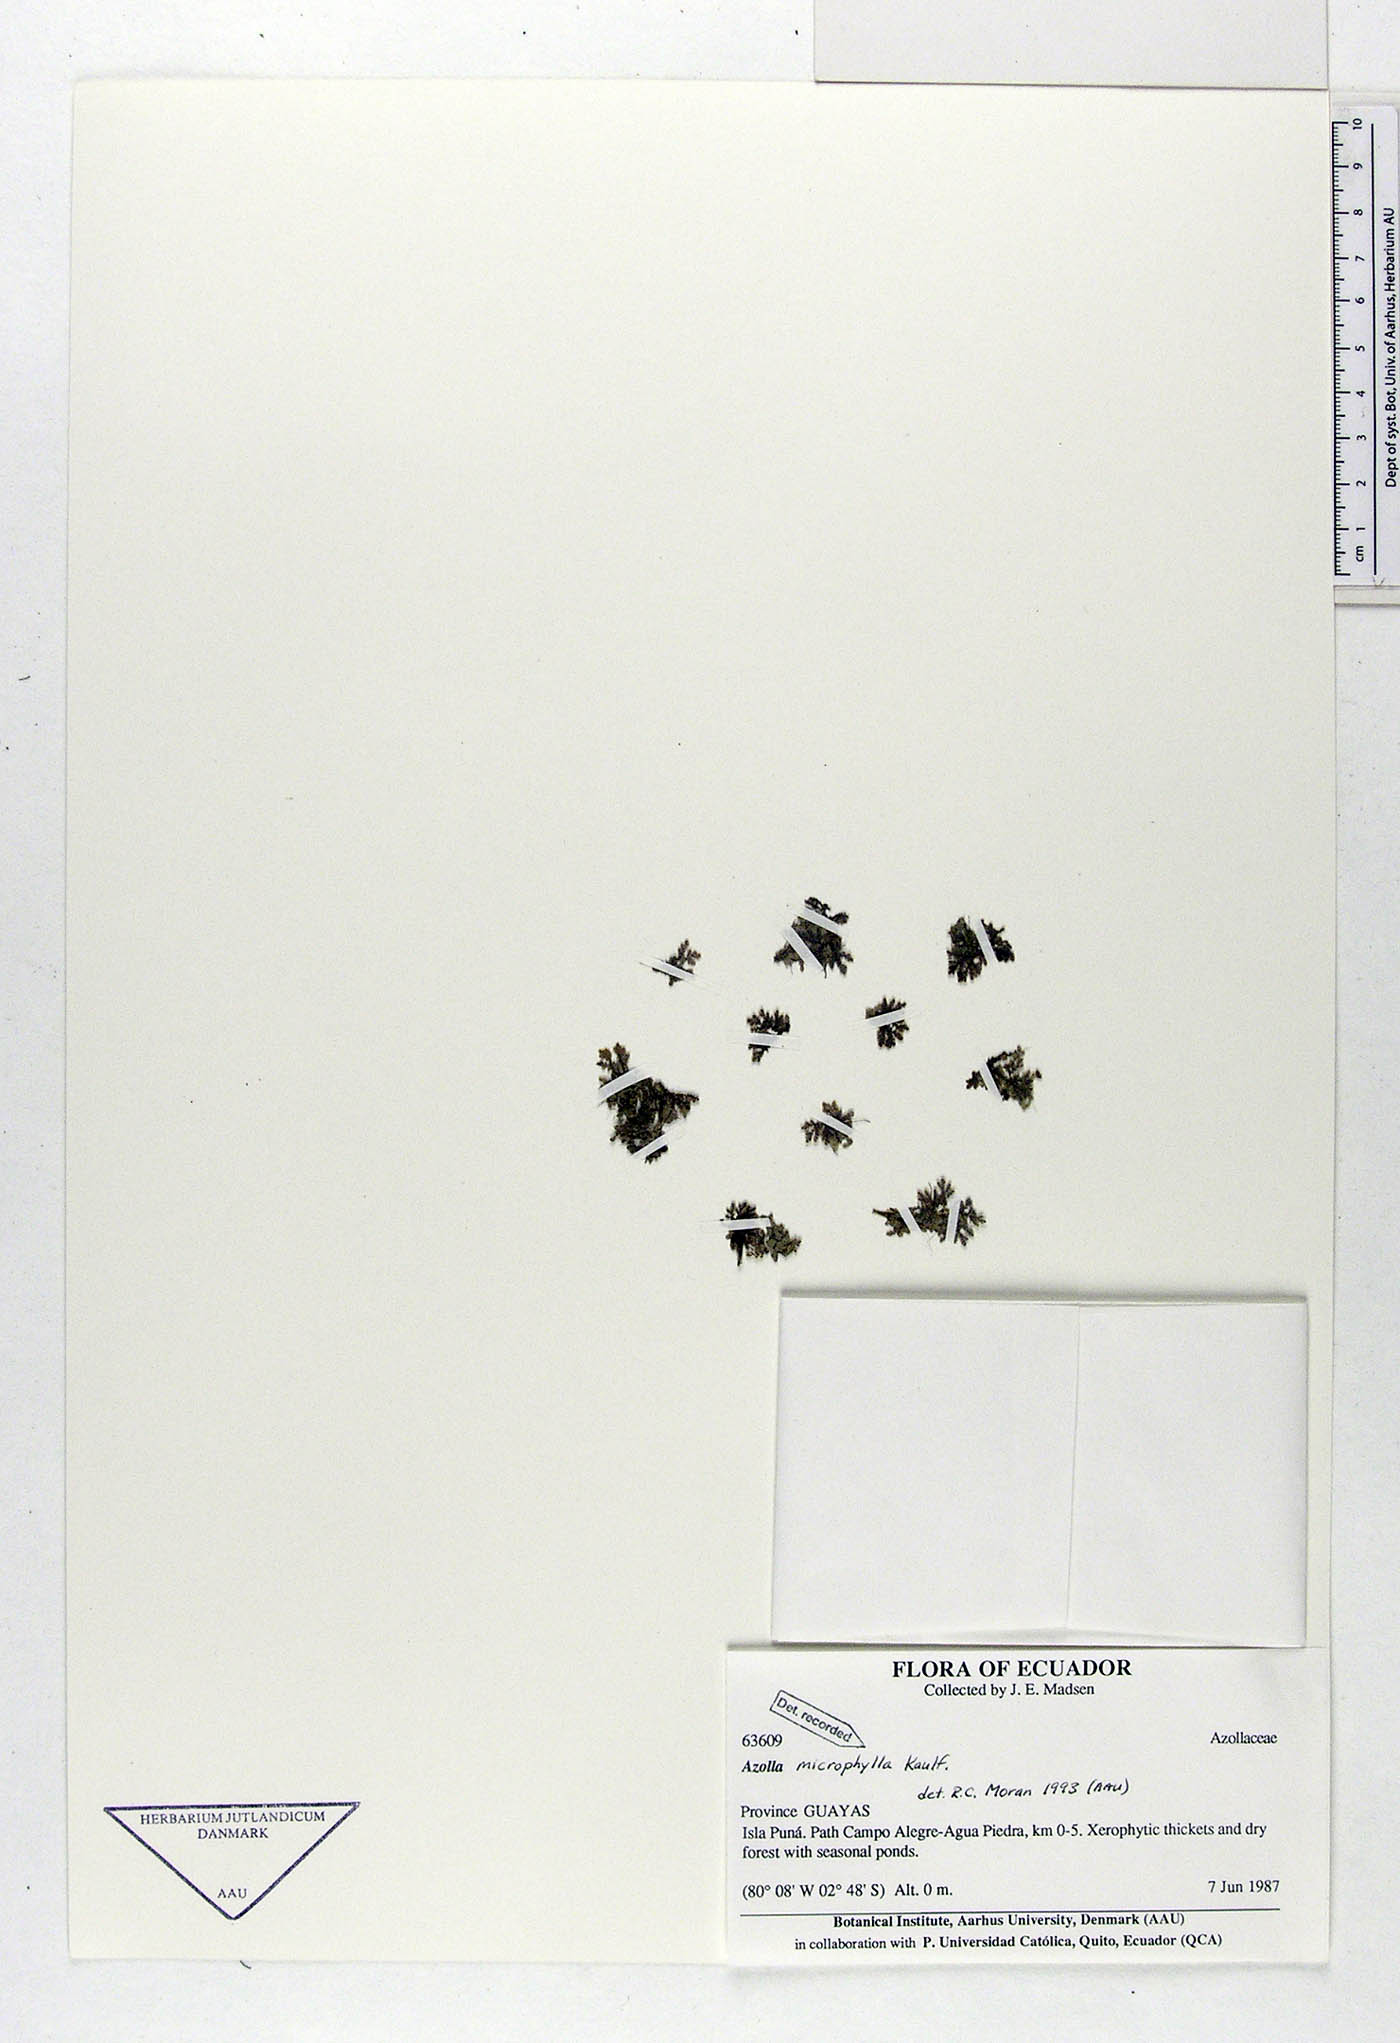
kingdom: Plantae
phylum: Tracheophyta
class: Polypodiopsida
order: Salviniales
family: Salviniaceae
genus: Azolla
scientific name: Azolla cristata
